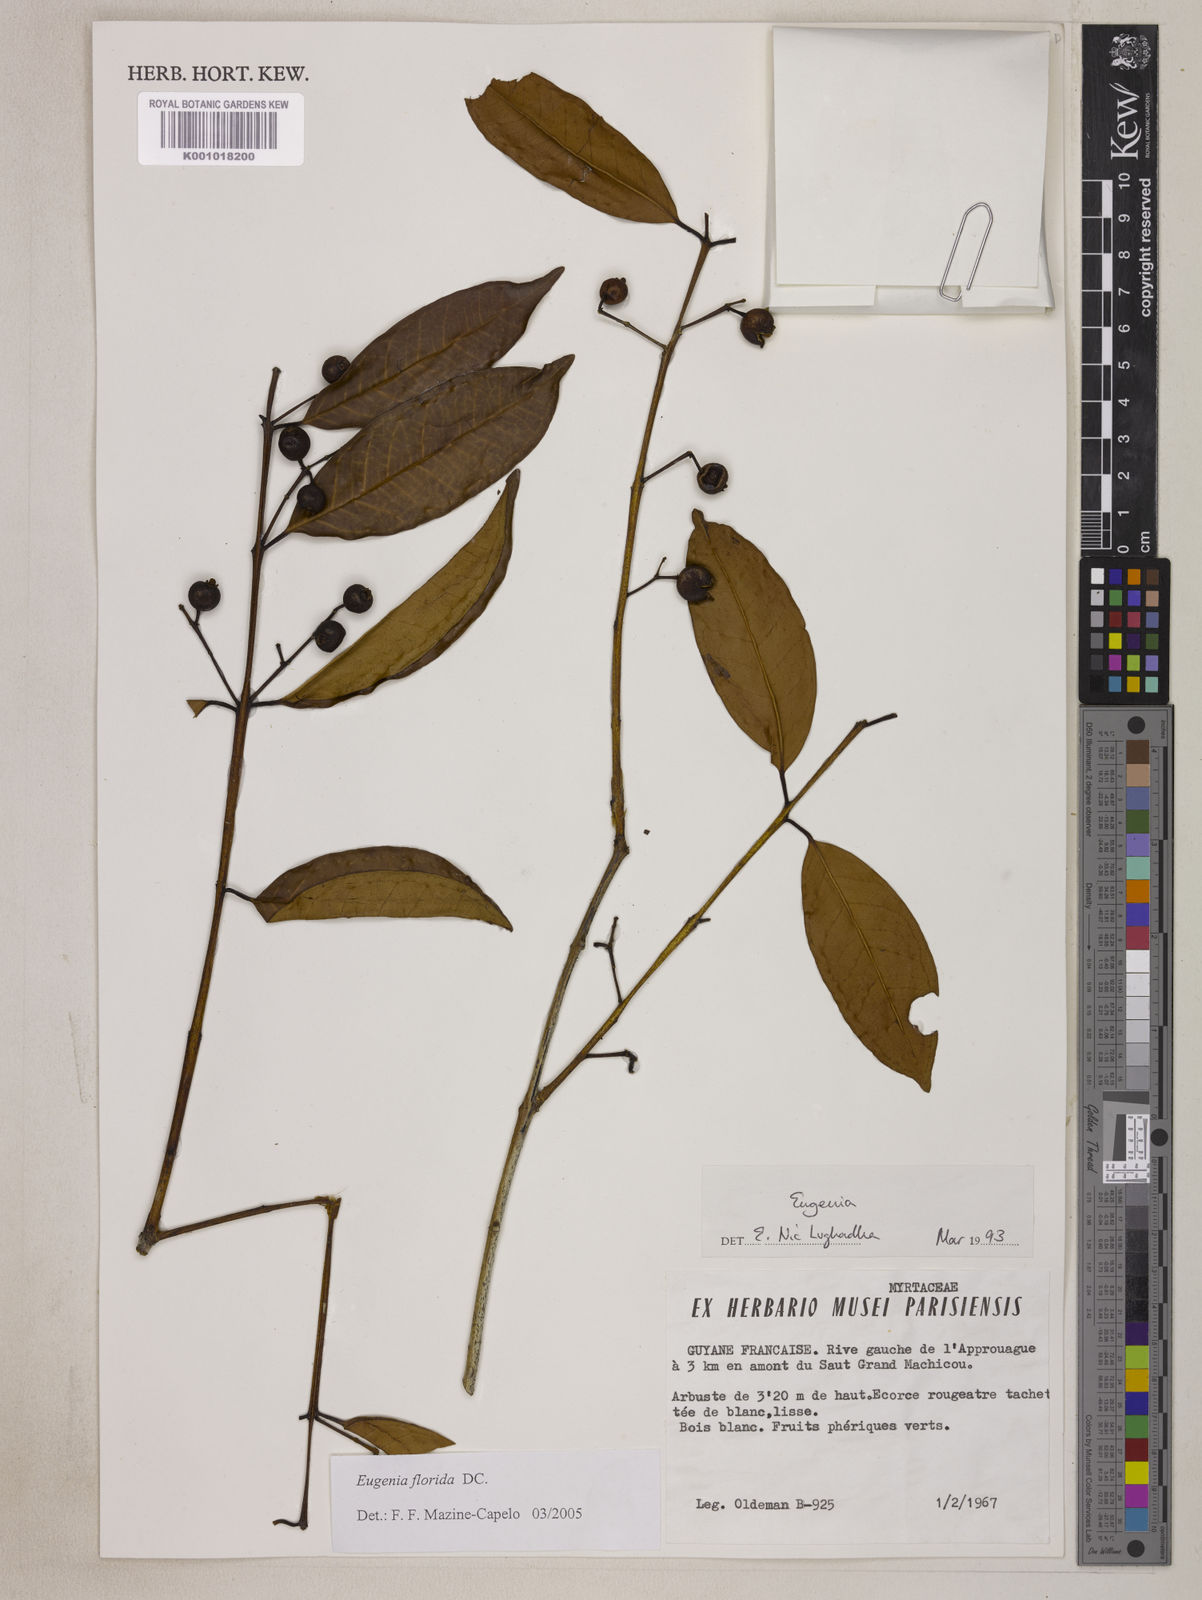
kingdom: Plantae
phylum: Tracheophyta
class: Magnoliopsida
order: Myrtales
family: Myrtaceae
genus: Eugenia
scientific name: Eugenia florida
